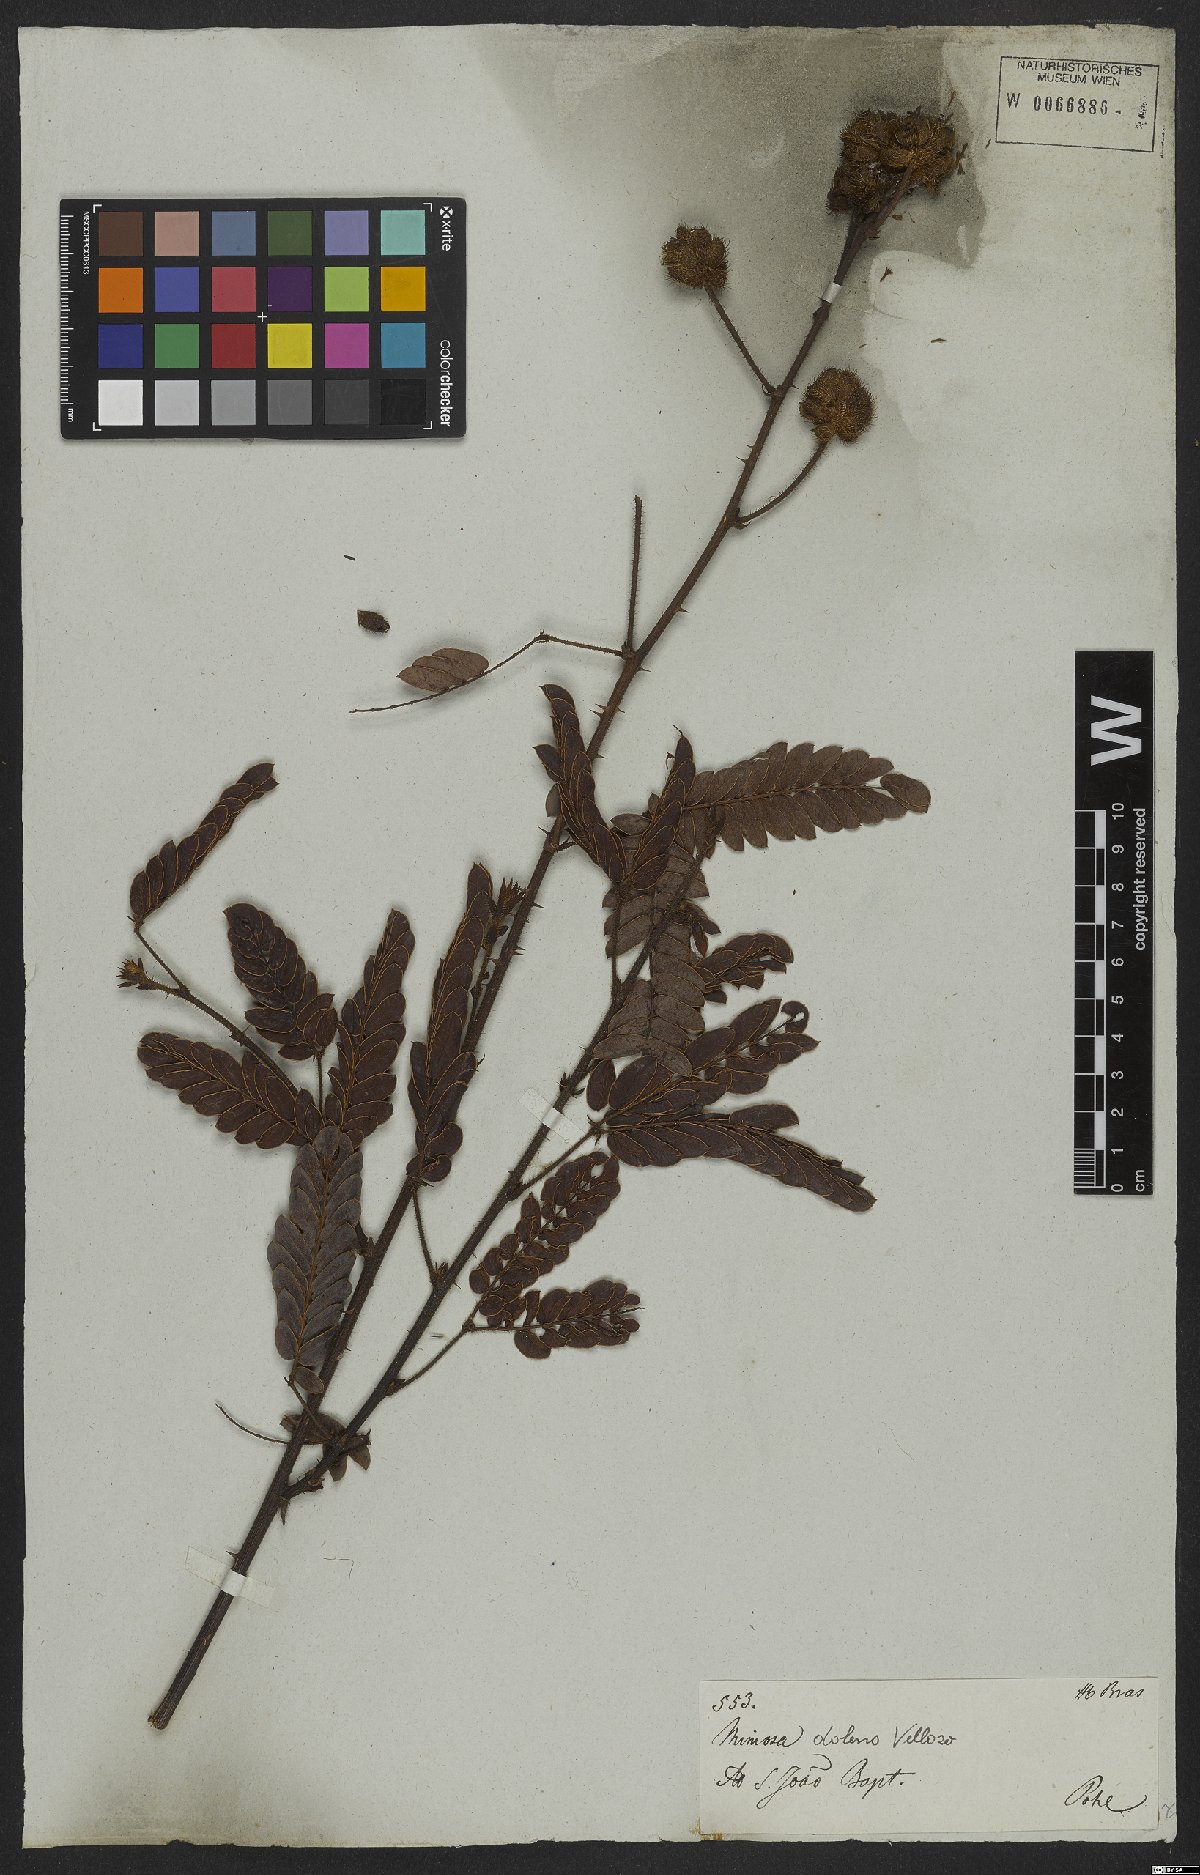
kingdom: Plantae
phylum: Tracheophyta
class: Magnoliopsida
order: Fabales
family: Fabaceae
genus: Mimosa
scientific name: Mimosa dolens
